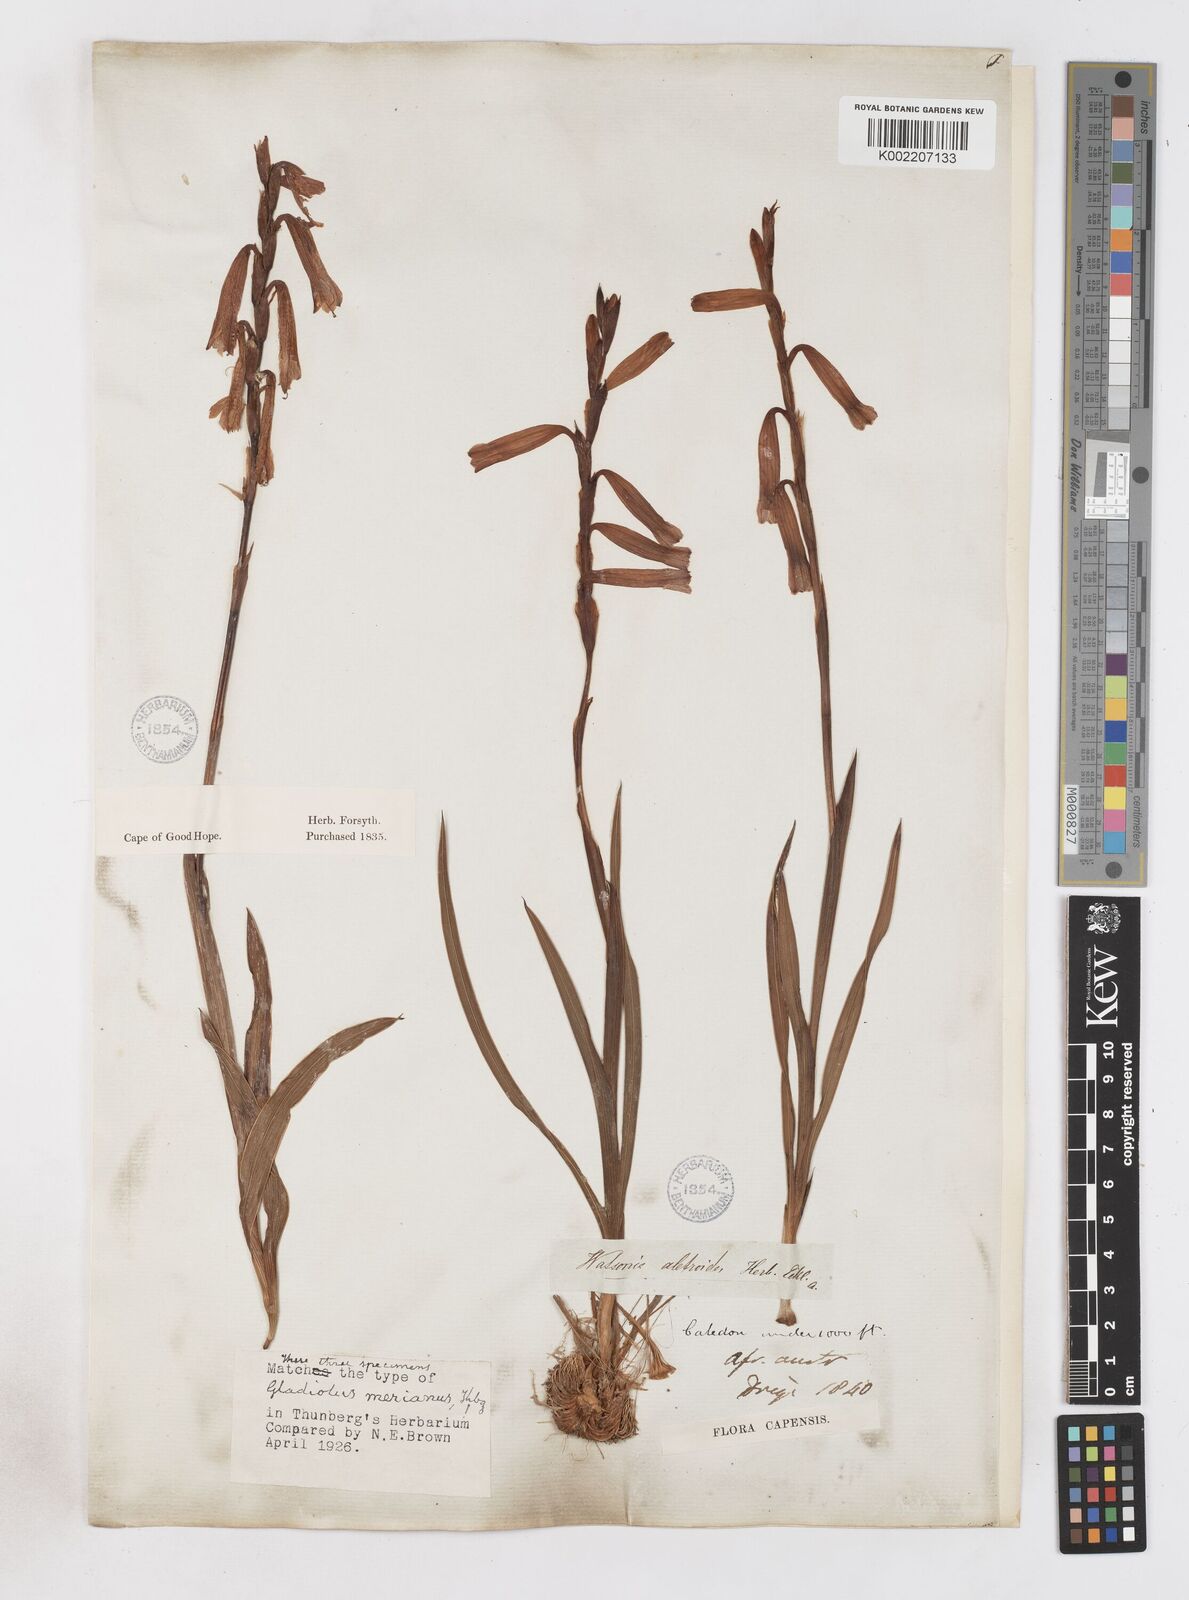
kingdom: Plantae
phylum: Tracheophyta
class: Liliopsida
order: Asparagales
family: Iridaceae
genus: Watsonia
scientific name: Watsonia aletroides
